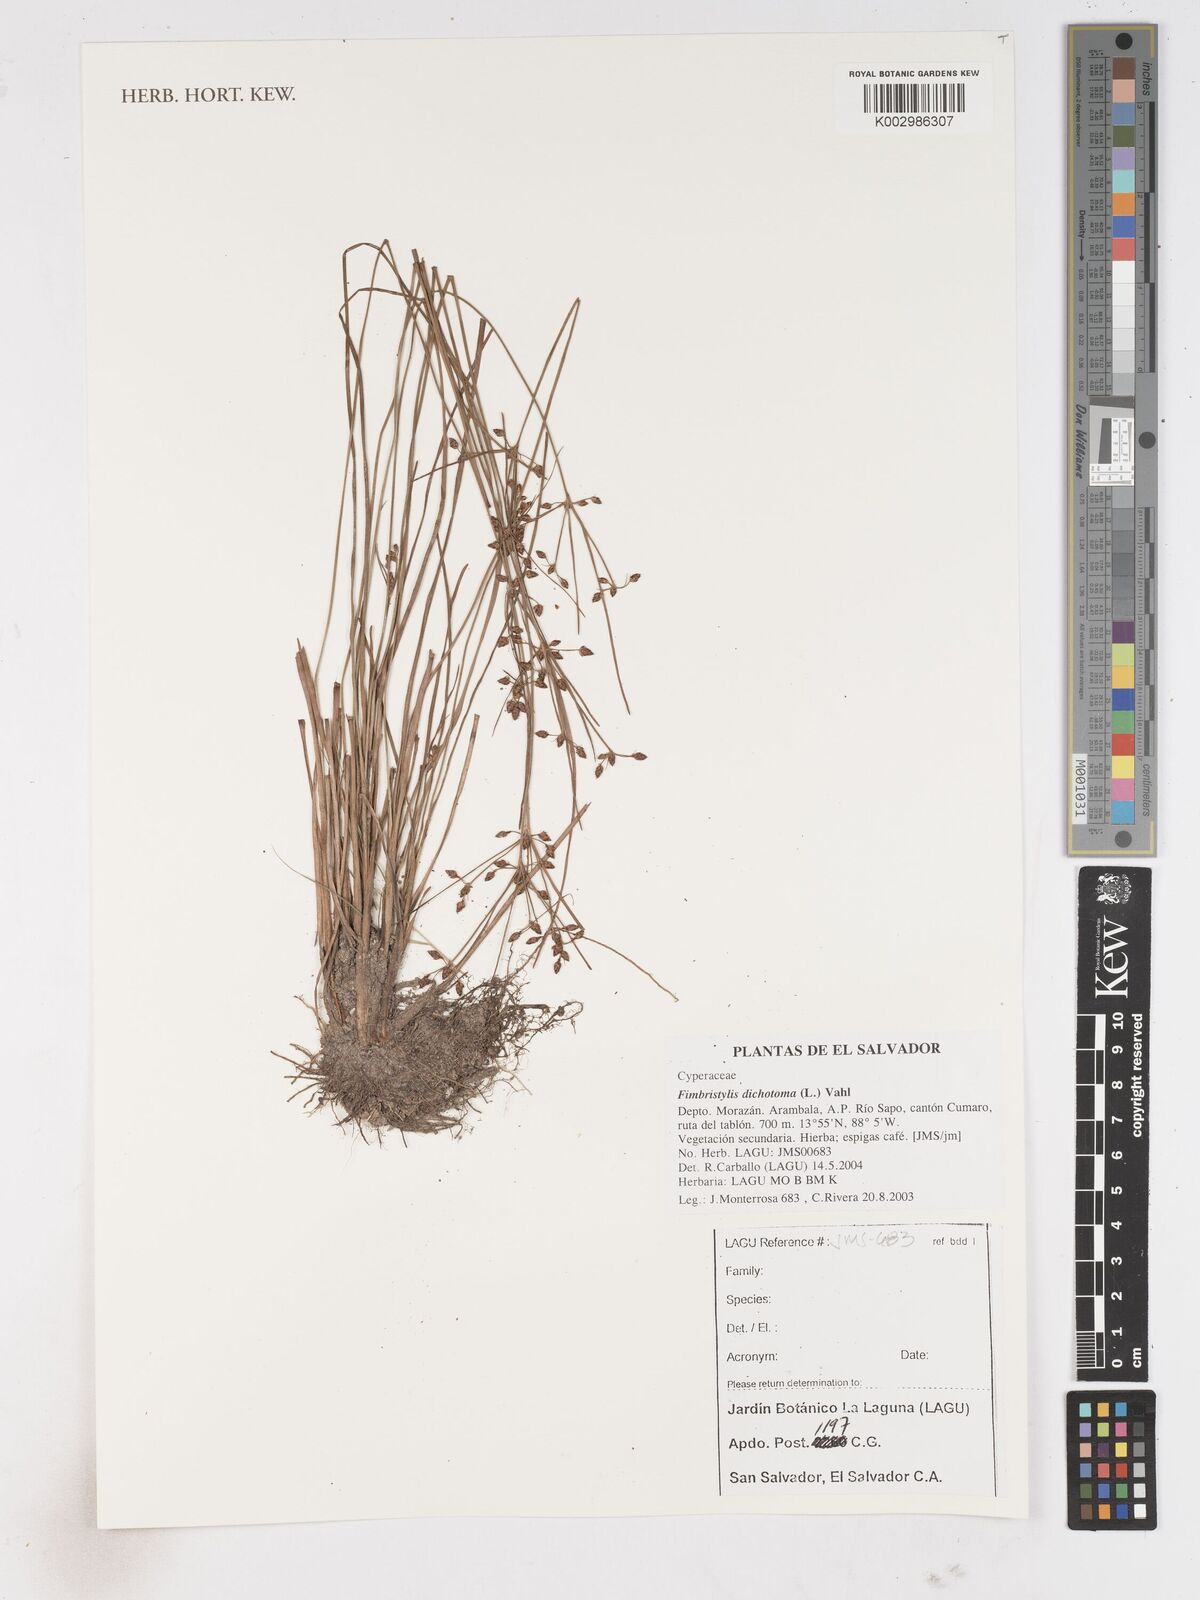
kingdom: Plantae
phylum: Tracheophyta
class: Liliopsida
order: Poales
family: Cyperaceae
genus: Fimbristylis
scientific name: Fimbristylis dichotoma
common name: Forked fimbry
